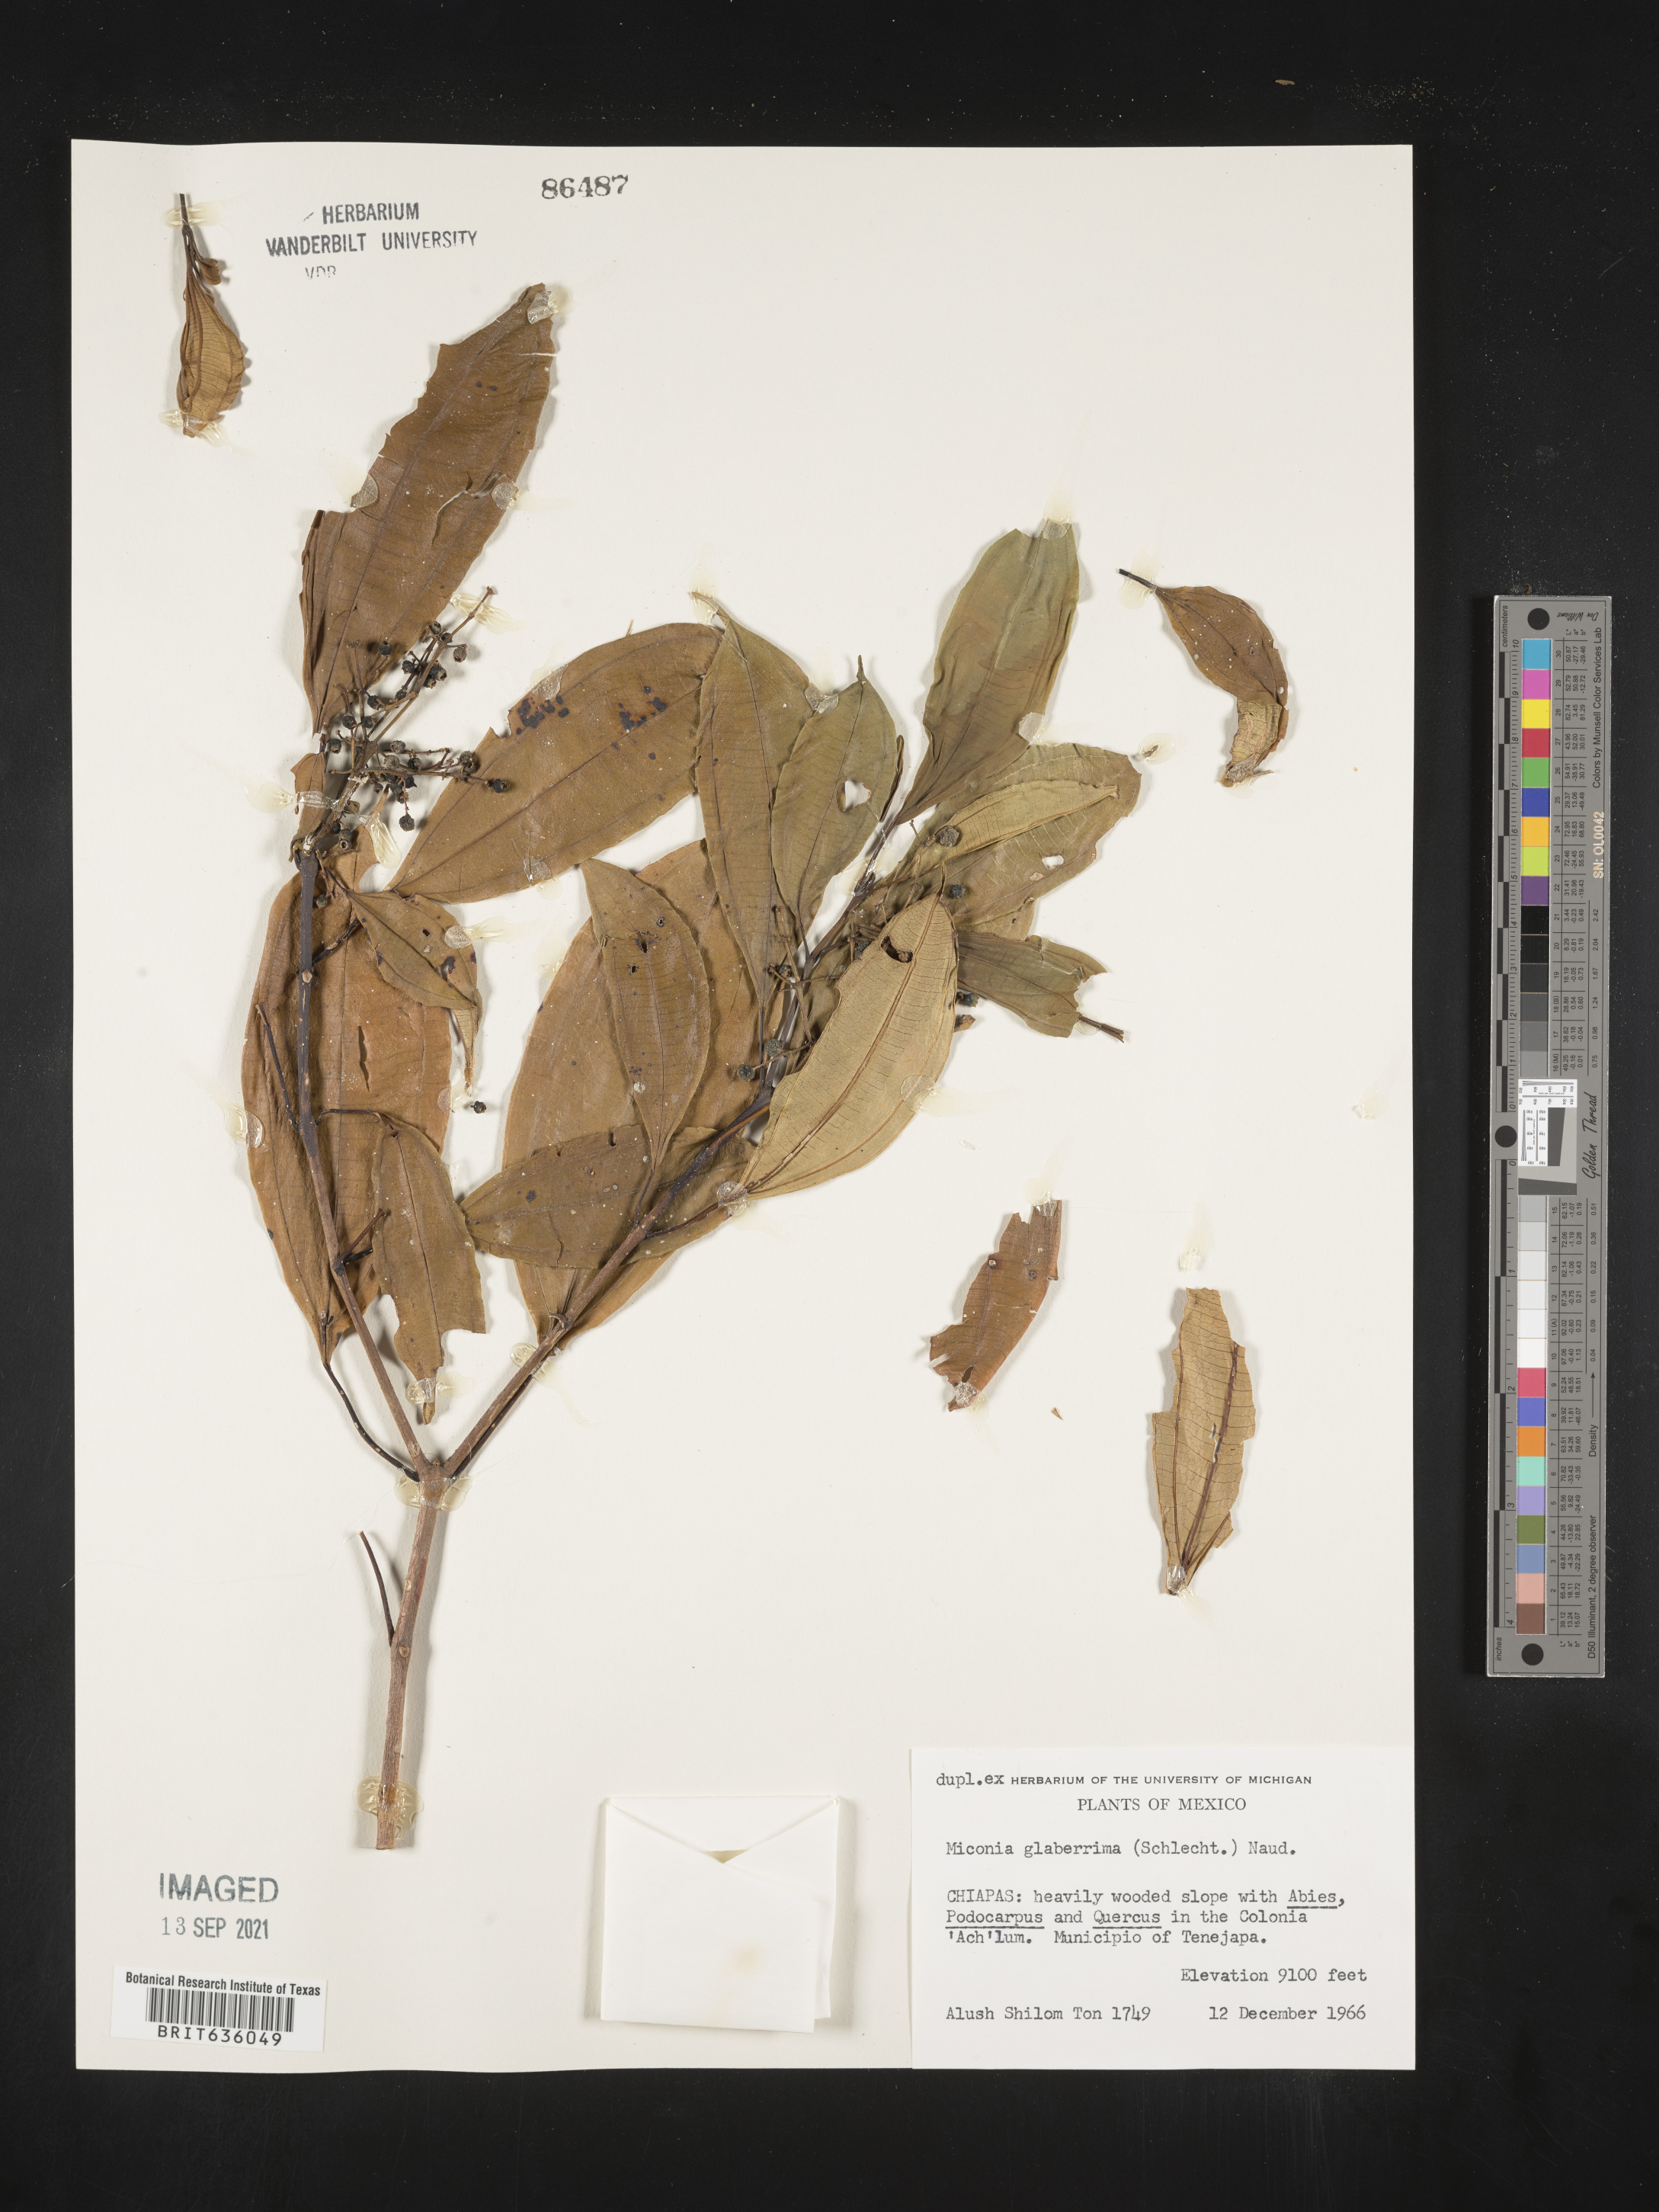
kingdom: Plantae
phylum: Tracheophyta
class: Magnoliopsida
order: Myrtales
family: Melastomataceae
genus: Miconia
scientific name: Miconia
